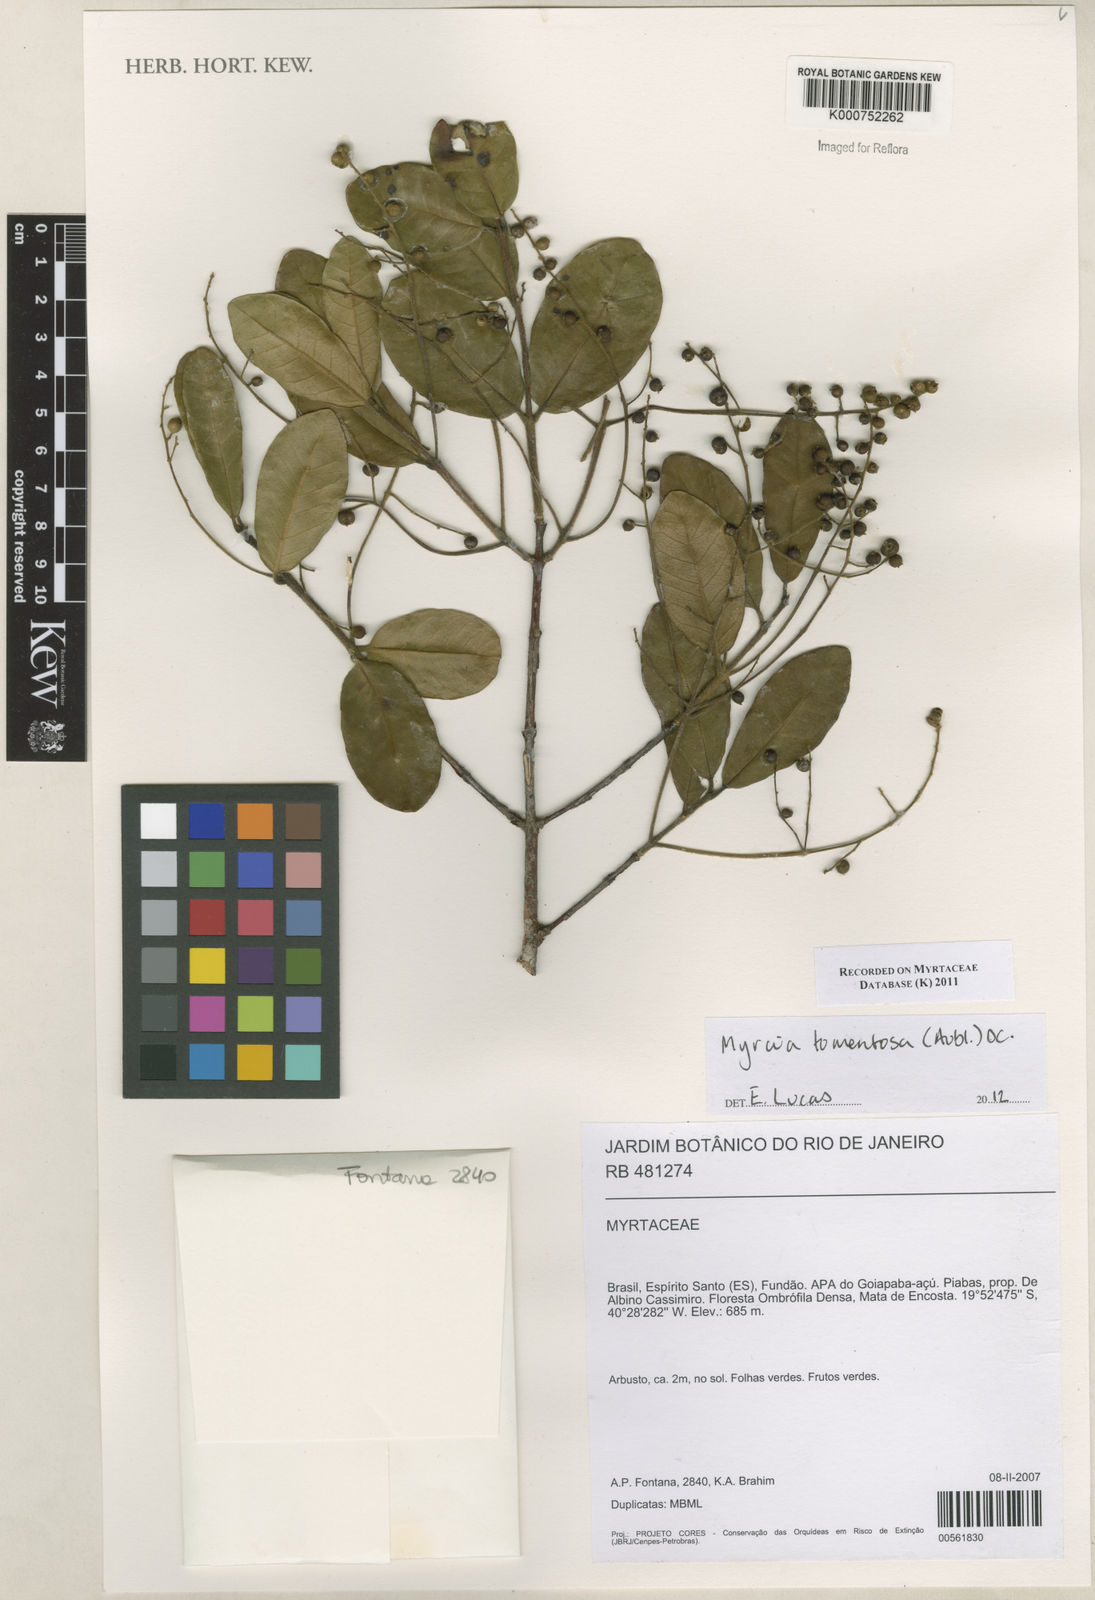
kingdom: Plantae
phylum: Tracheophyta
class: Magnoliopsida
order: Myrtales
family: Myrtaceae
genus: Myrcia
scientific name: Myrcia tomentosa
